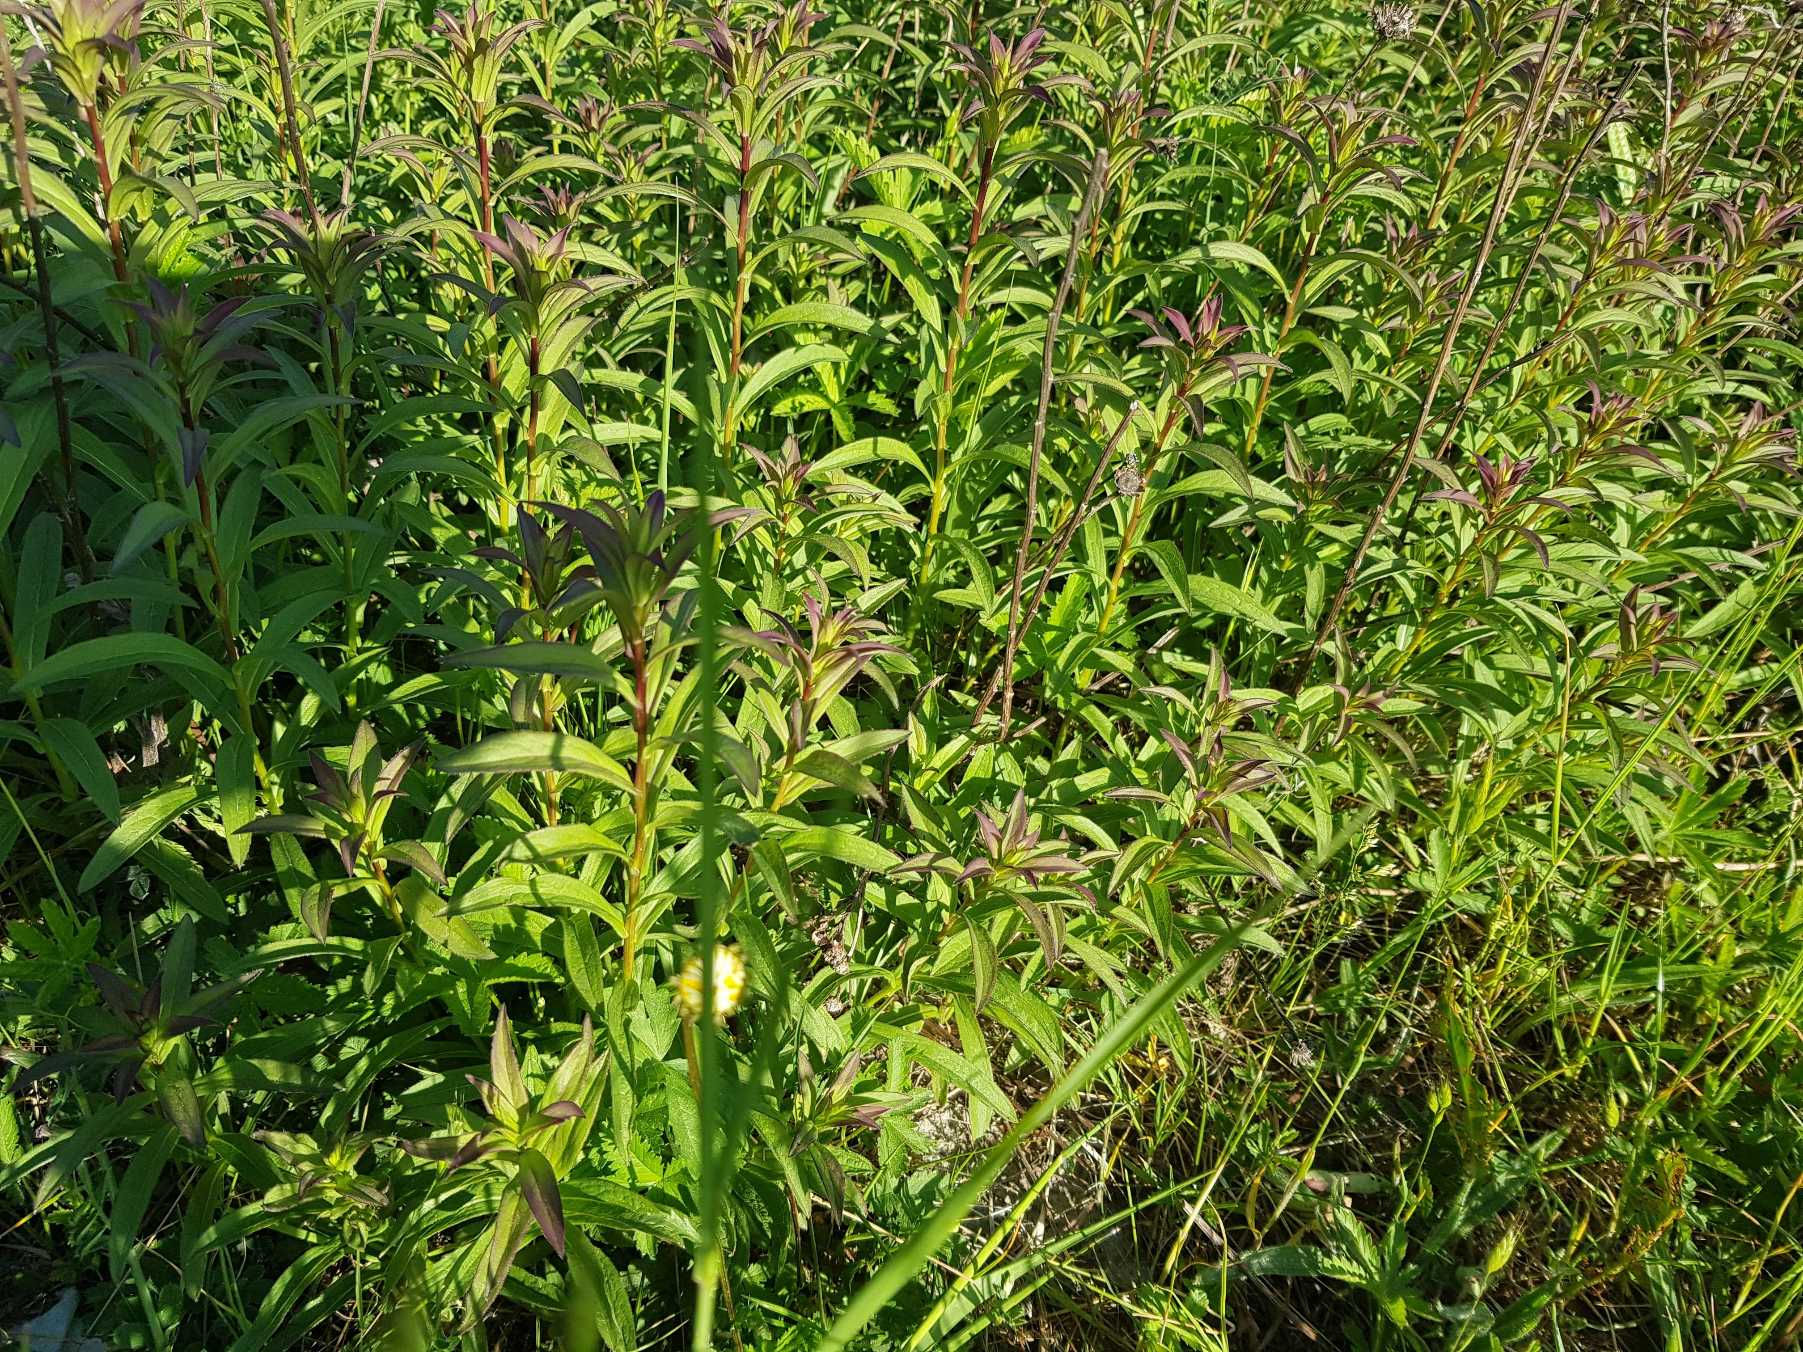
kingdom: Plantae
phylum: Tracheophyta
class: Magnoliopsida
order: Asterales
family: Asteraceae
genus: Pentanema
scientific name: Pentanema salicinum
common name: Pile-alant
